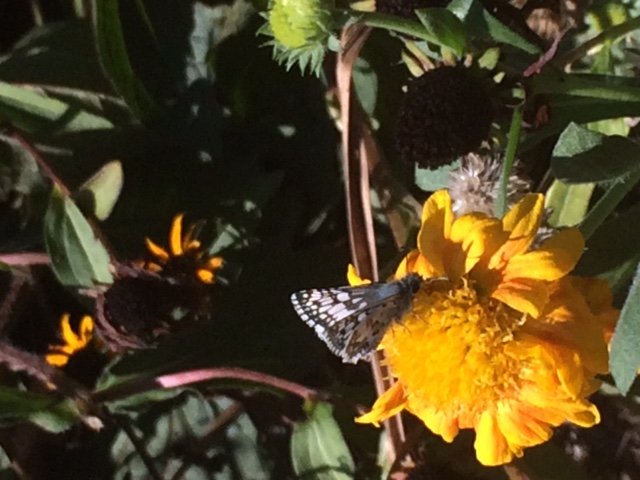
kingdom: Animalia
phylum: Arthropoda
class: Insecta
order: Lepidoptera
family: Hesperiidae
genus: Pyrgus
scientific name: Pyrgus communis
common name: Common Checkered-Skipper
